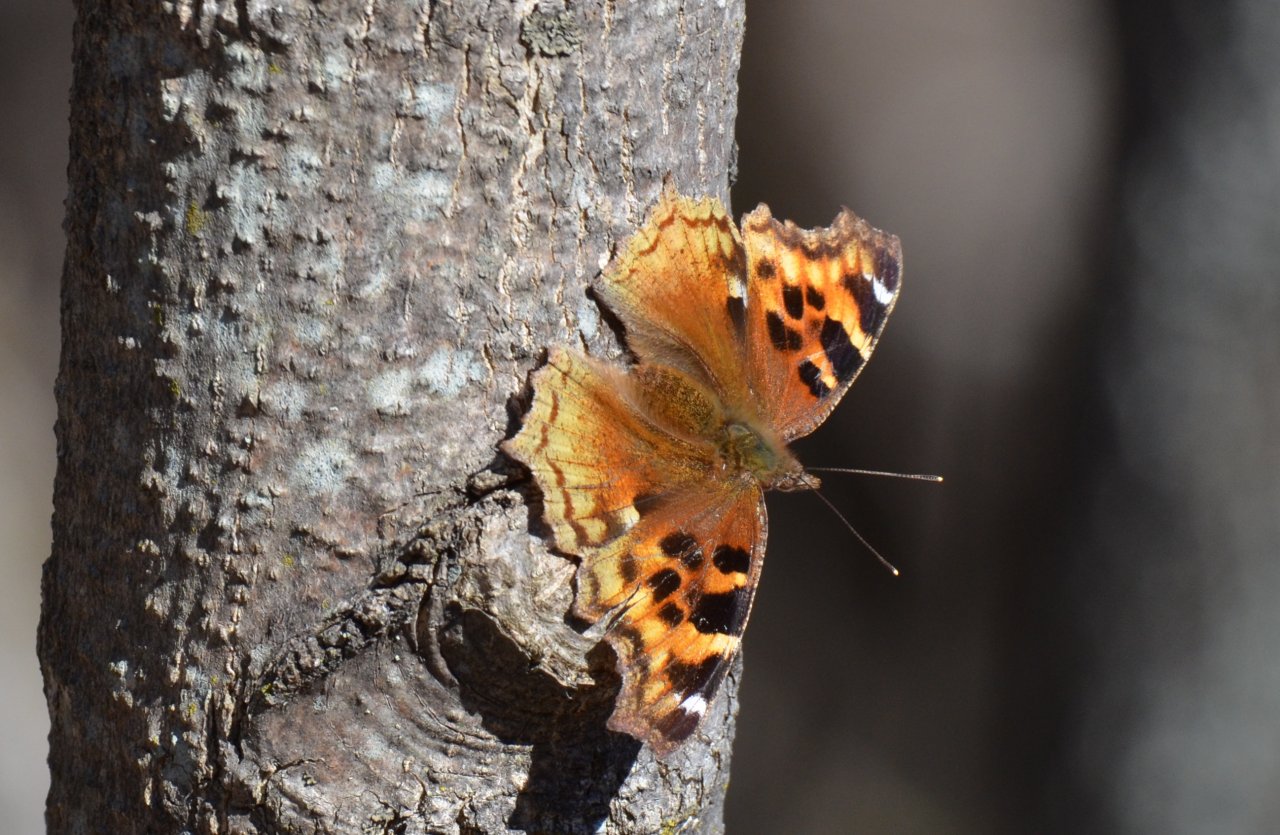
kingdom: Animalia
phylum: Arthropoda
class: Insecta
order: Lepidoptera
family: Nymphalidae
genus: Polygonia
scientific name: Polygonia vaualbum
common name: Compton Tortoiseshell
